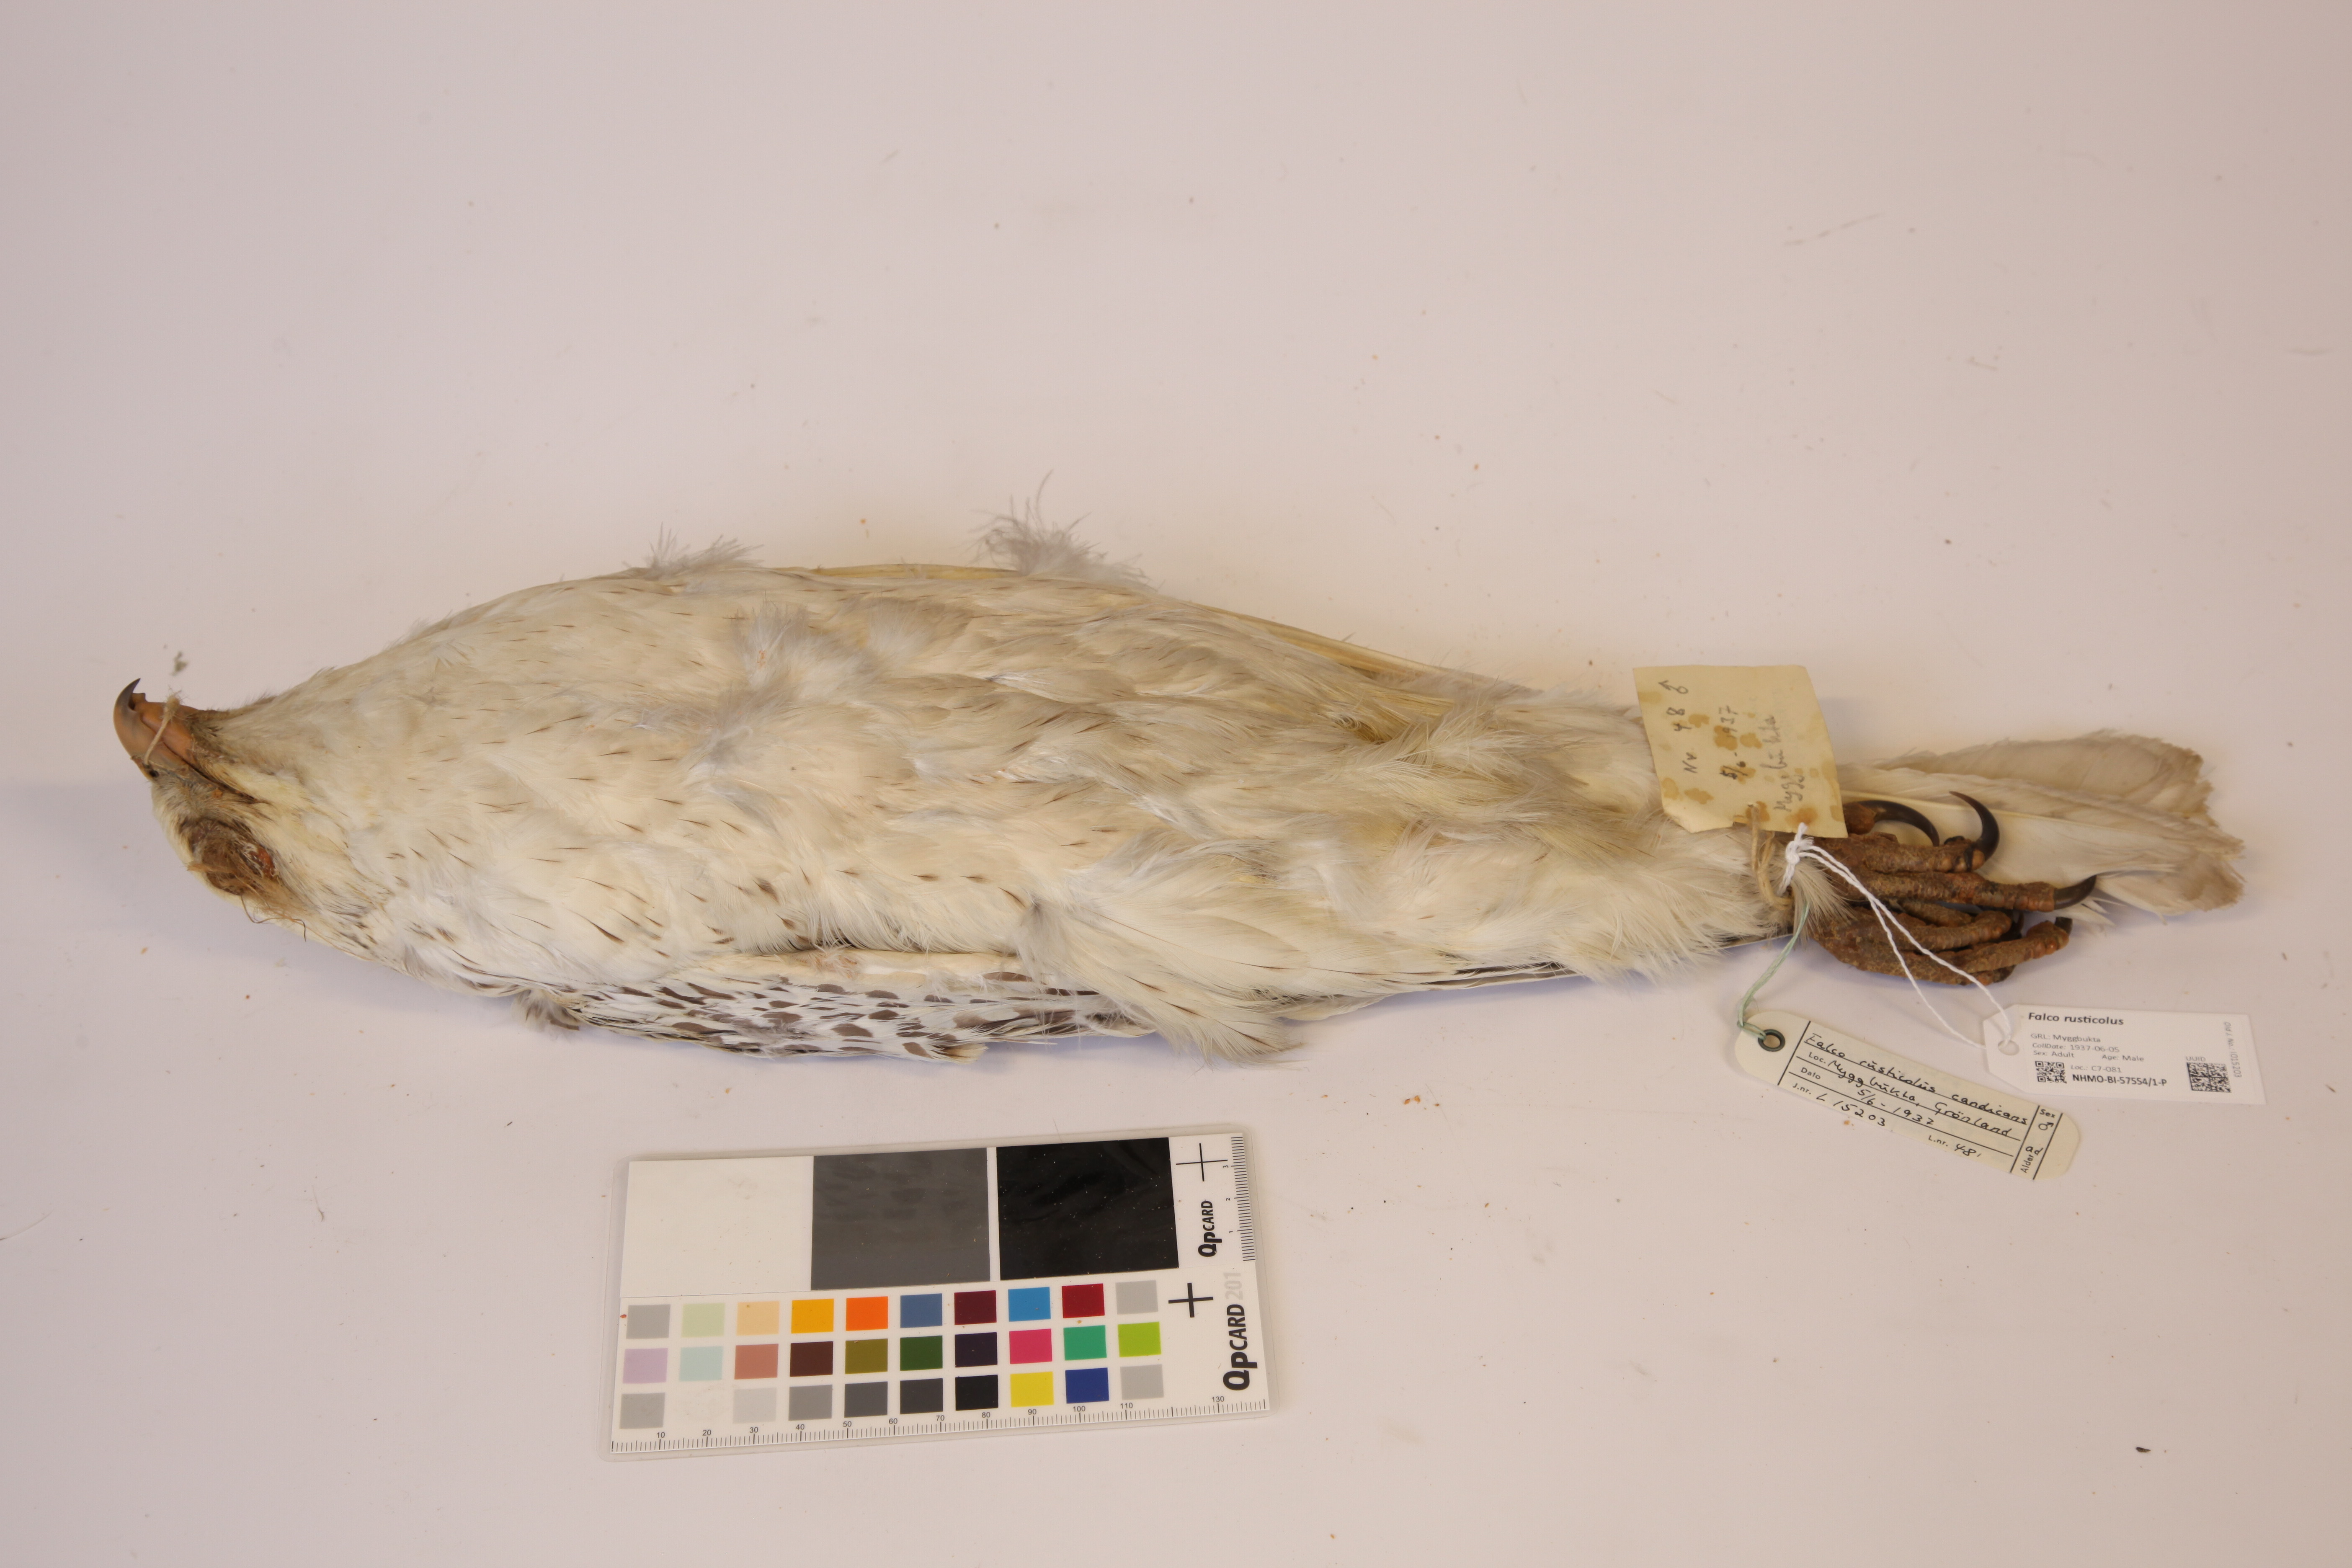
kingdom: Animalia
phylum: Chordata
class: Aves
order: Falconiformes
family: Falconidae
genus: Falco
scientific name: Falco rusticolus
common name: Gyrfalcon
